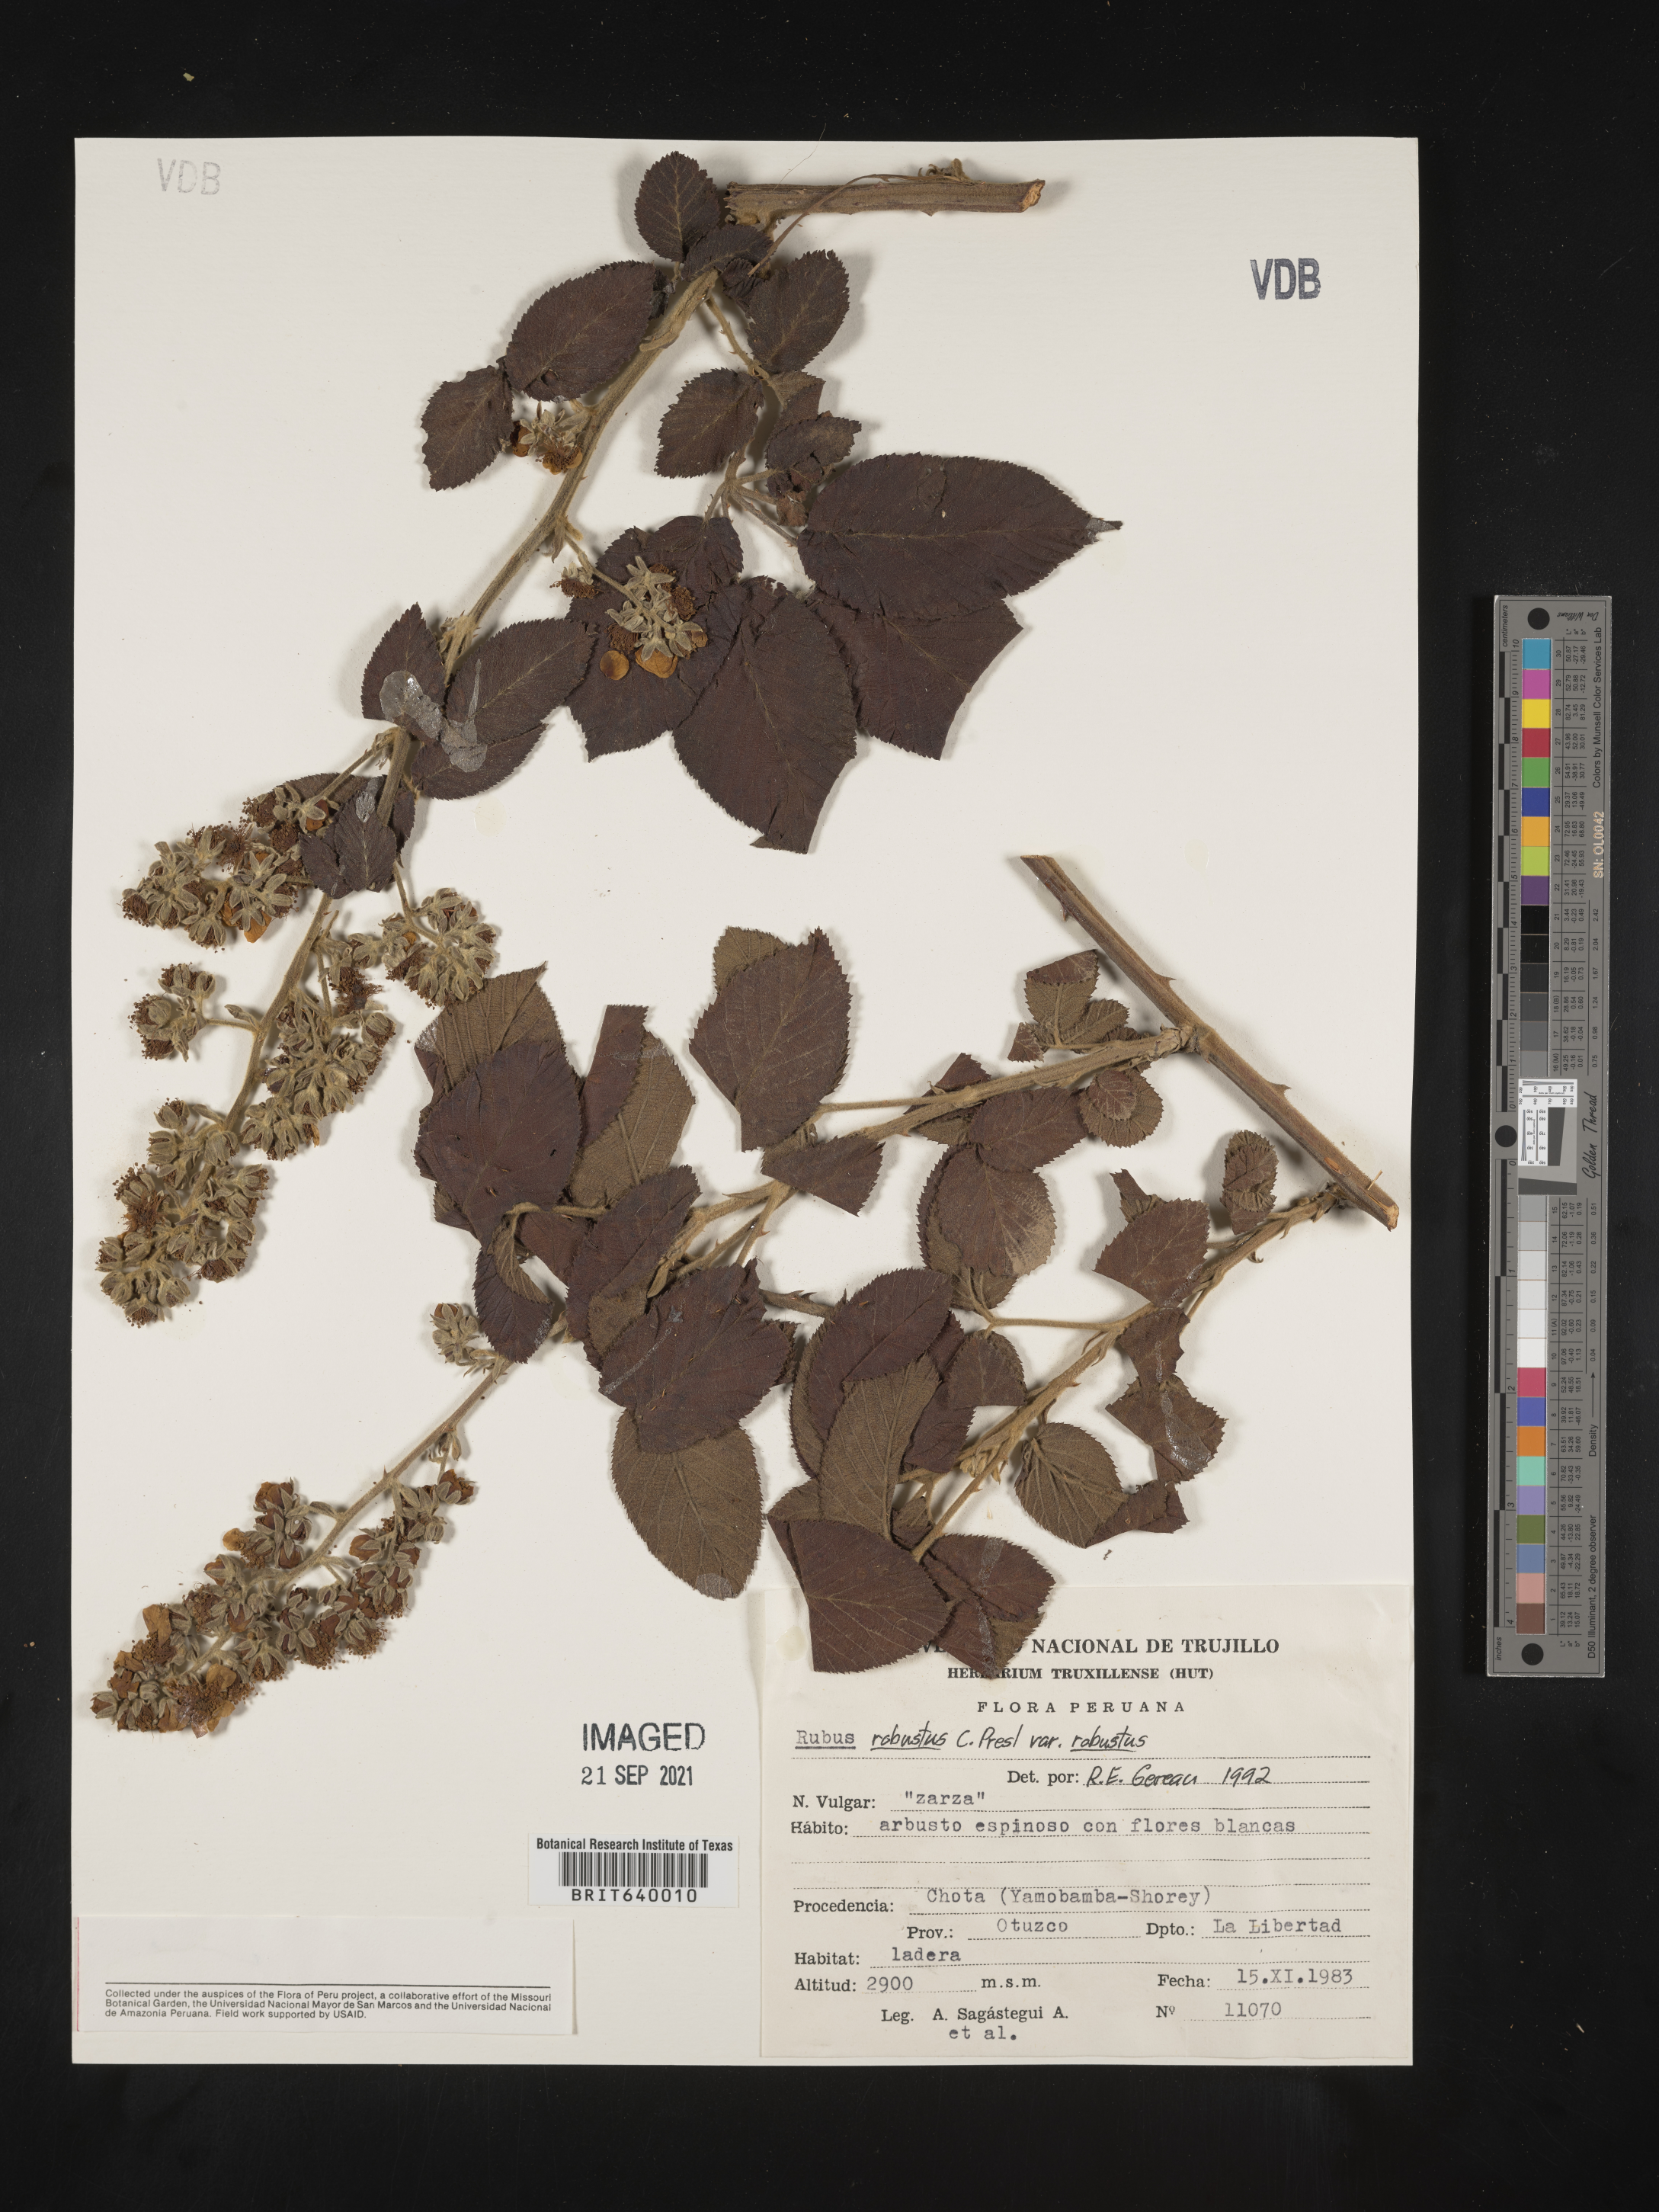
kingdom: Plantae
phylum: Tracheophyta
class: Magnoliopsida
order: Rosales
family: Rosaceae
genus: Rubus
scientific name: Rubus
